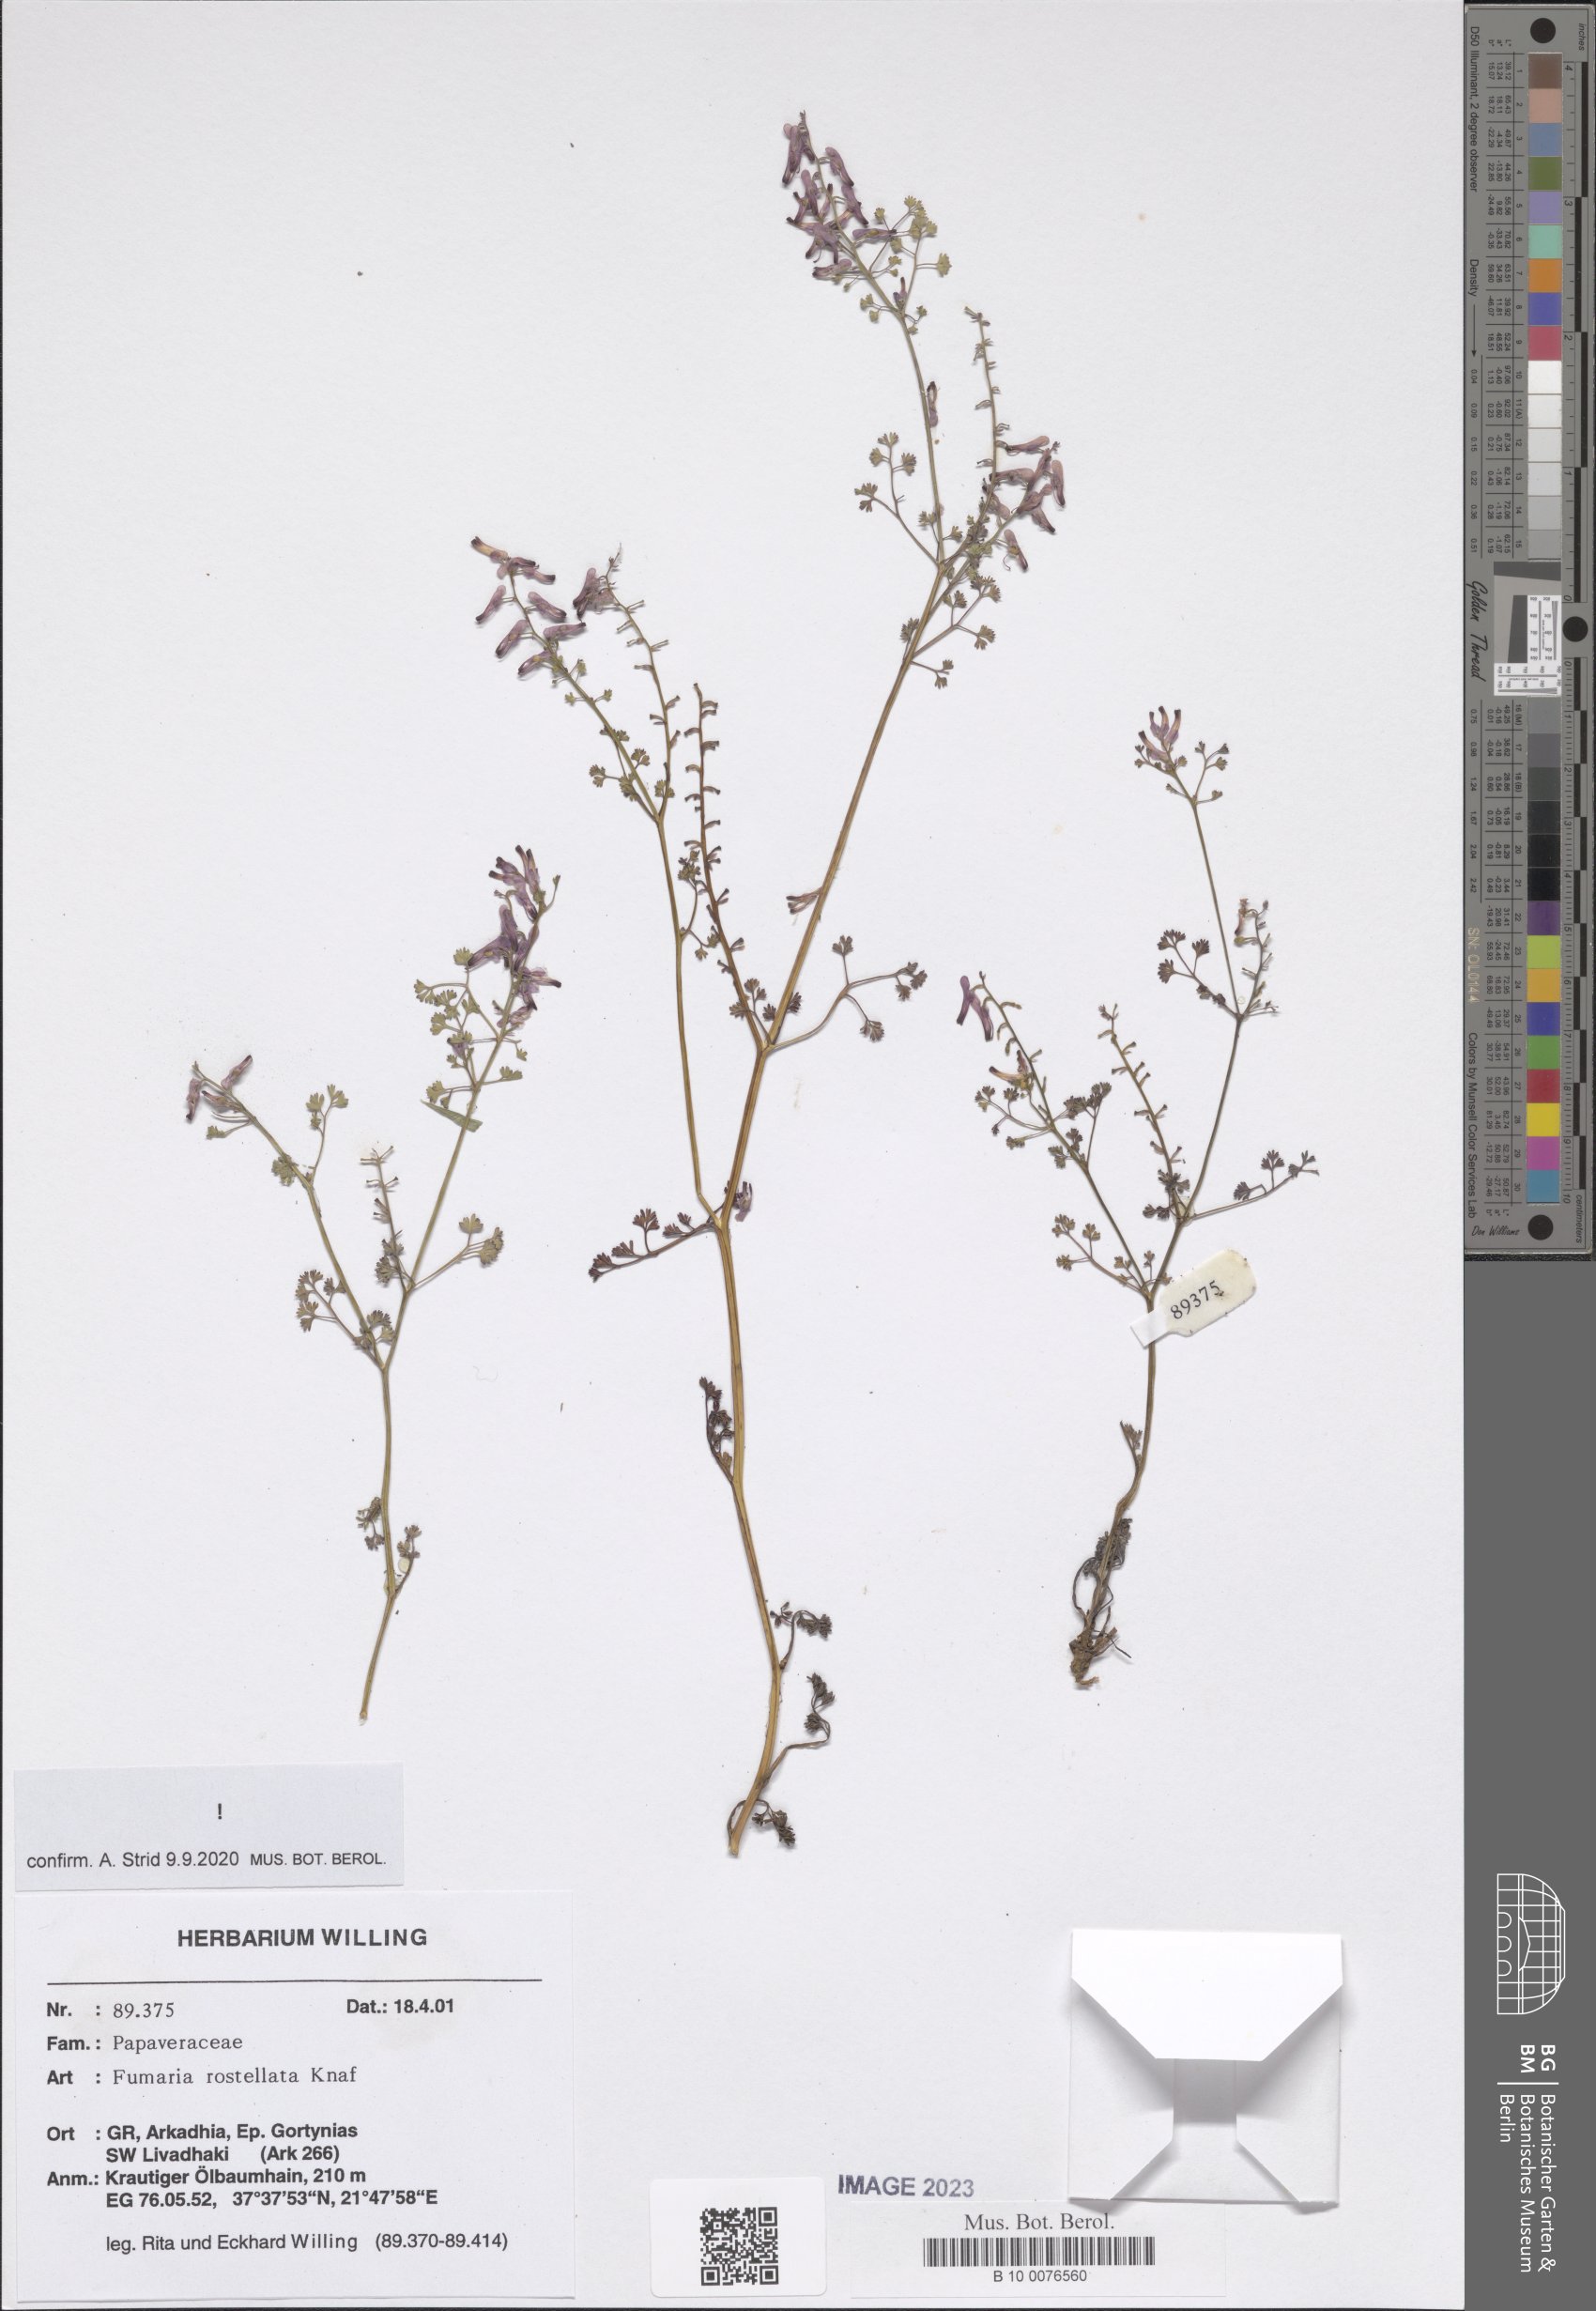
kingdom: Plantae
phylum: Tracheophyta
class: Magnoliopsida
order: Ranunculales
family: Papaveraceae
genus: Fumaria
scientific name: Fumaria rostellata
